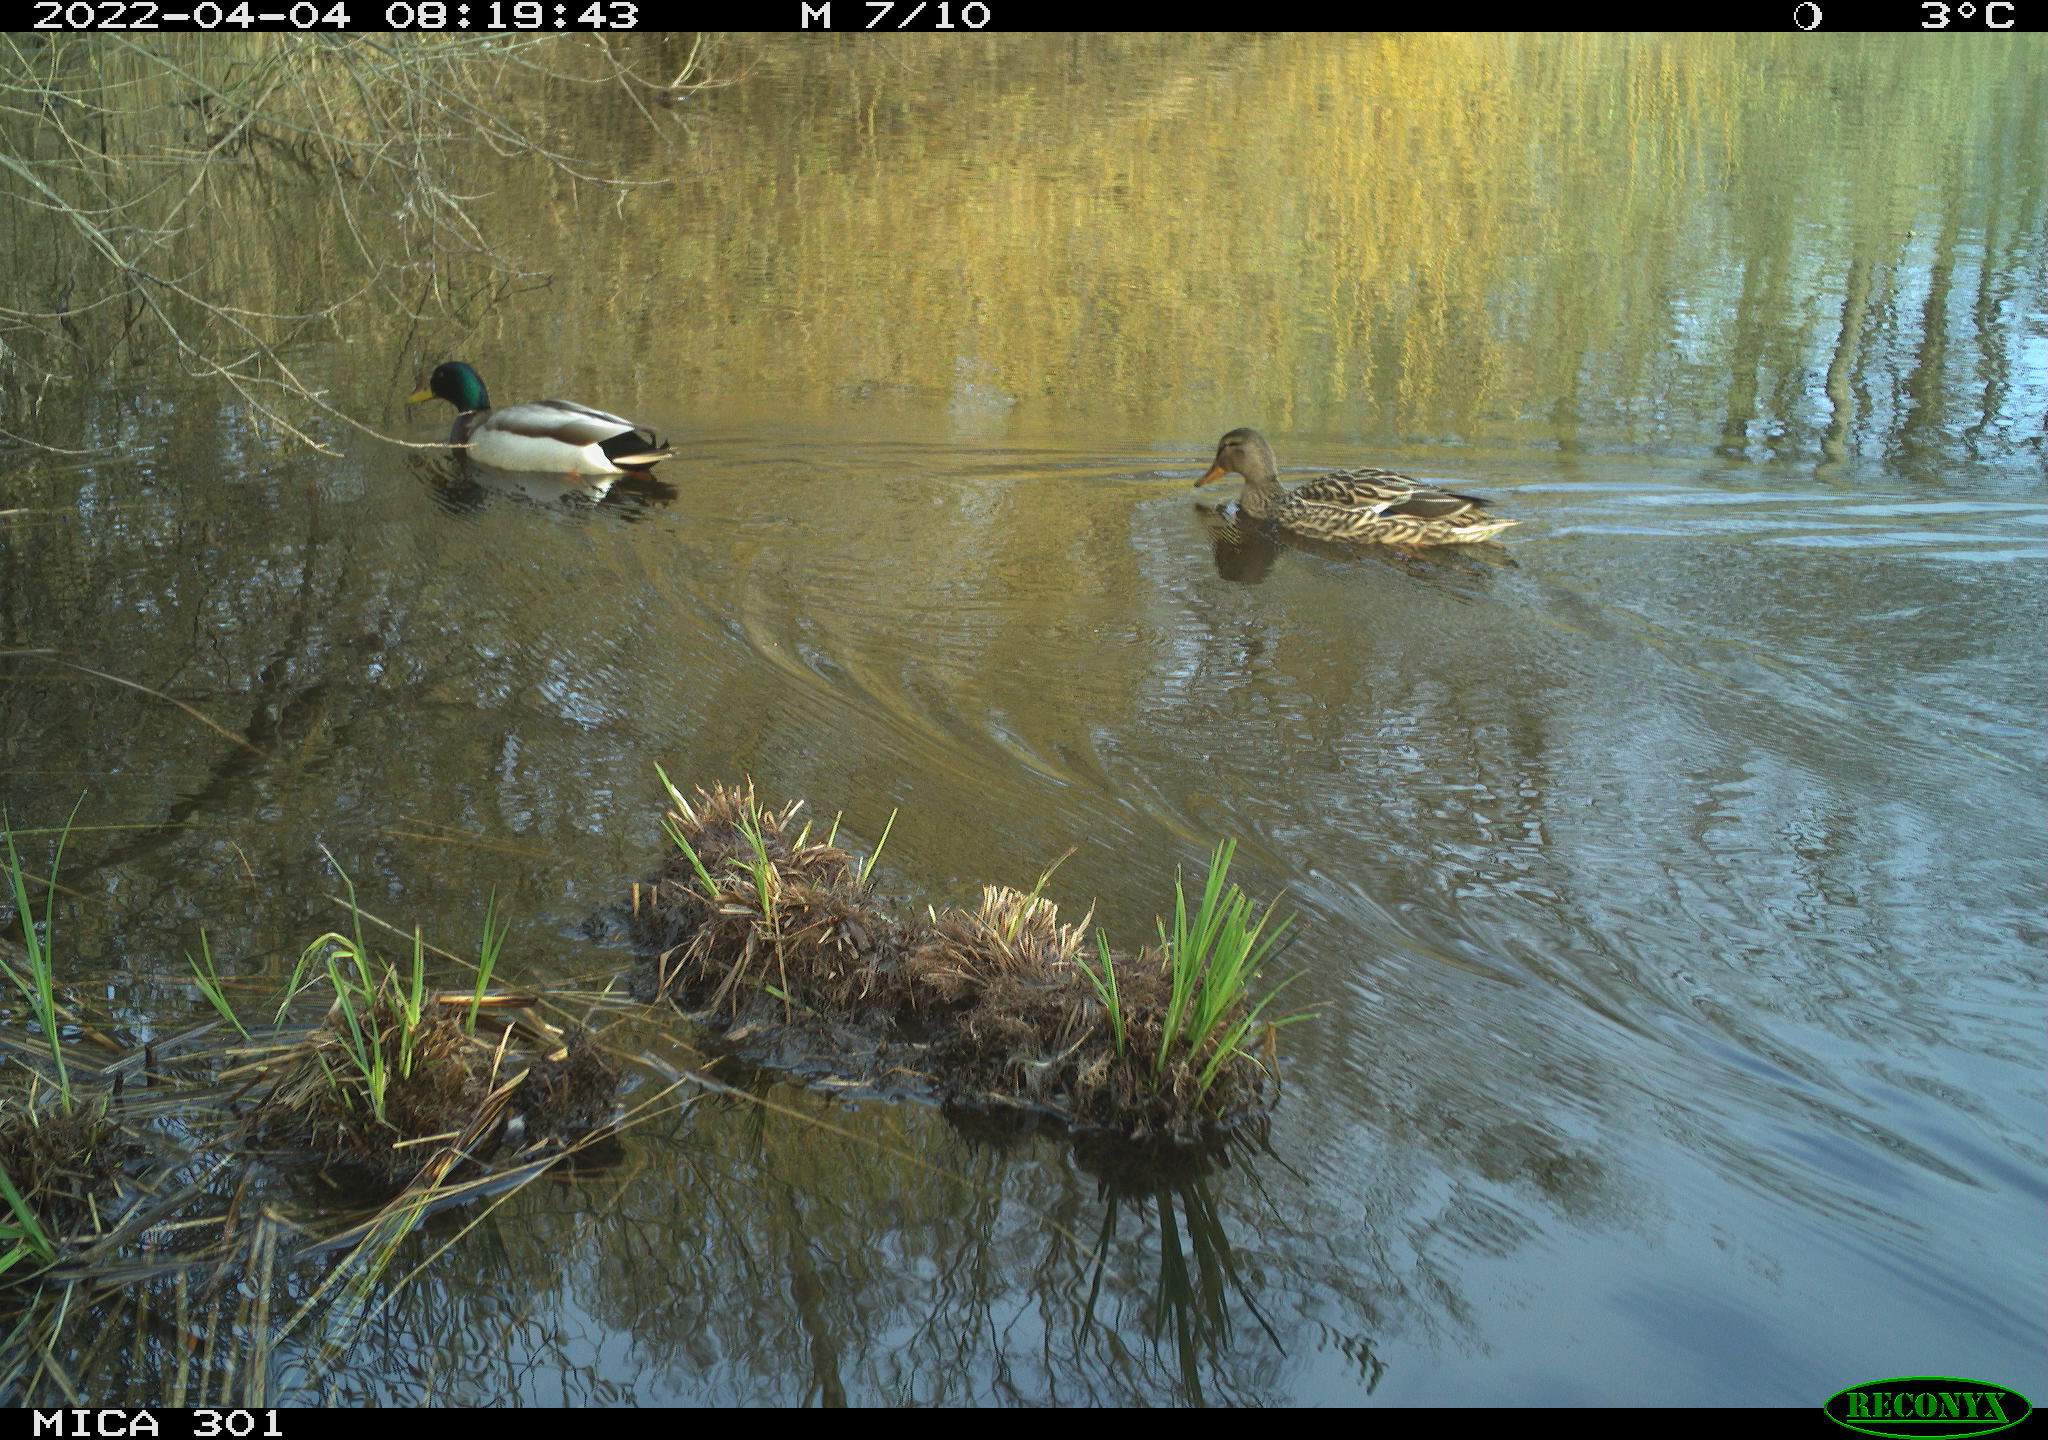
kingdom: Animalia
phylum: Chordata
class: Aves
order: Anseriformes
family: Anatidae
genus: Anas
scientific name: Anas platyrhynchos
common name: Mallard
